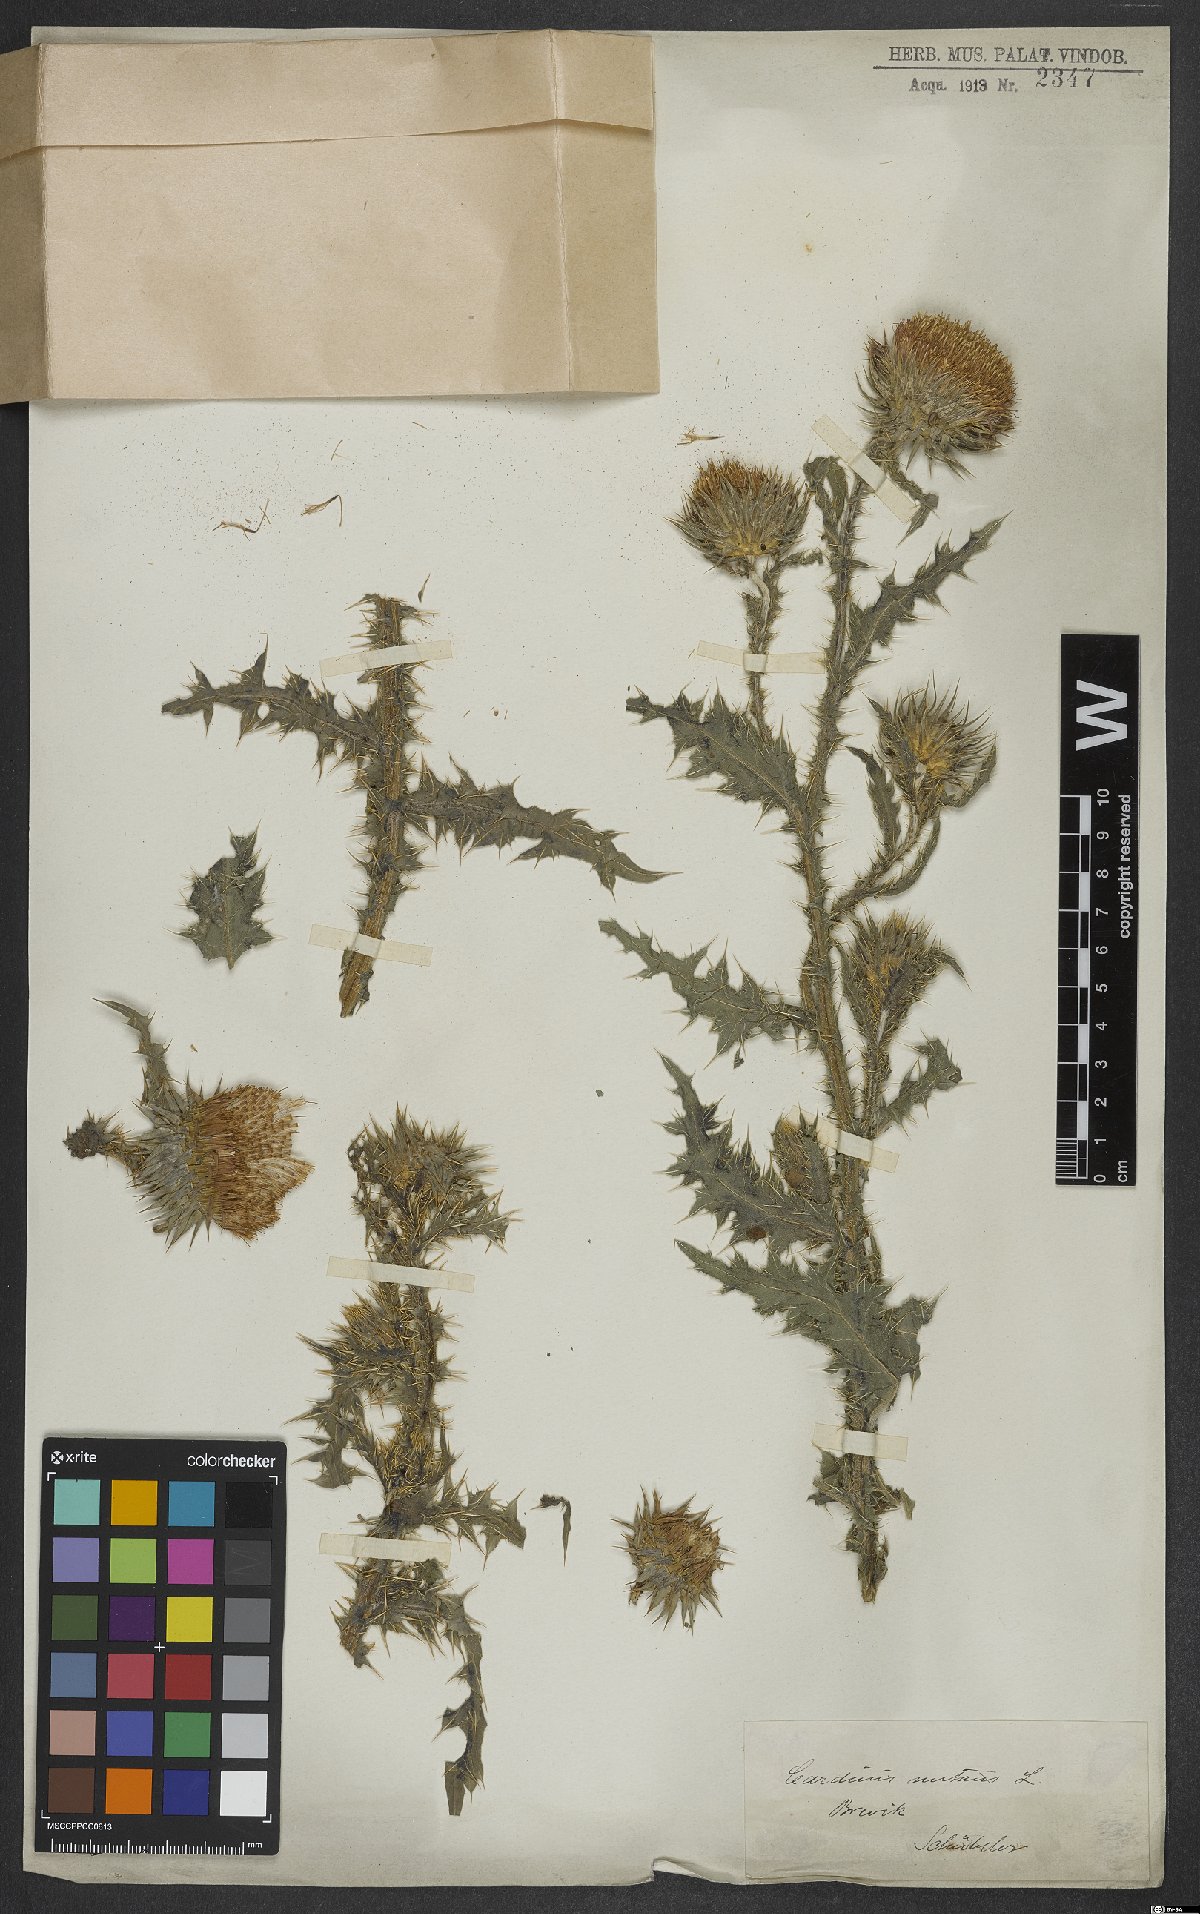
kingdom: Plantae
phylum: Tracheophyta
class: Magnoliopsida
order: Asterales
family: Asteraceae
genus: Carduus
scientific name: Carduus nutans
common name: Musk thistle
